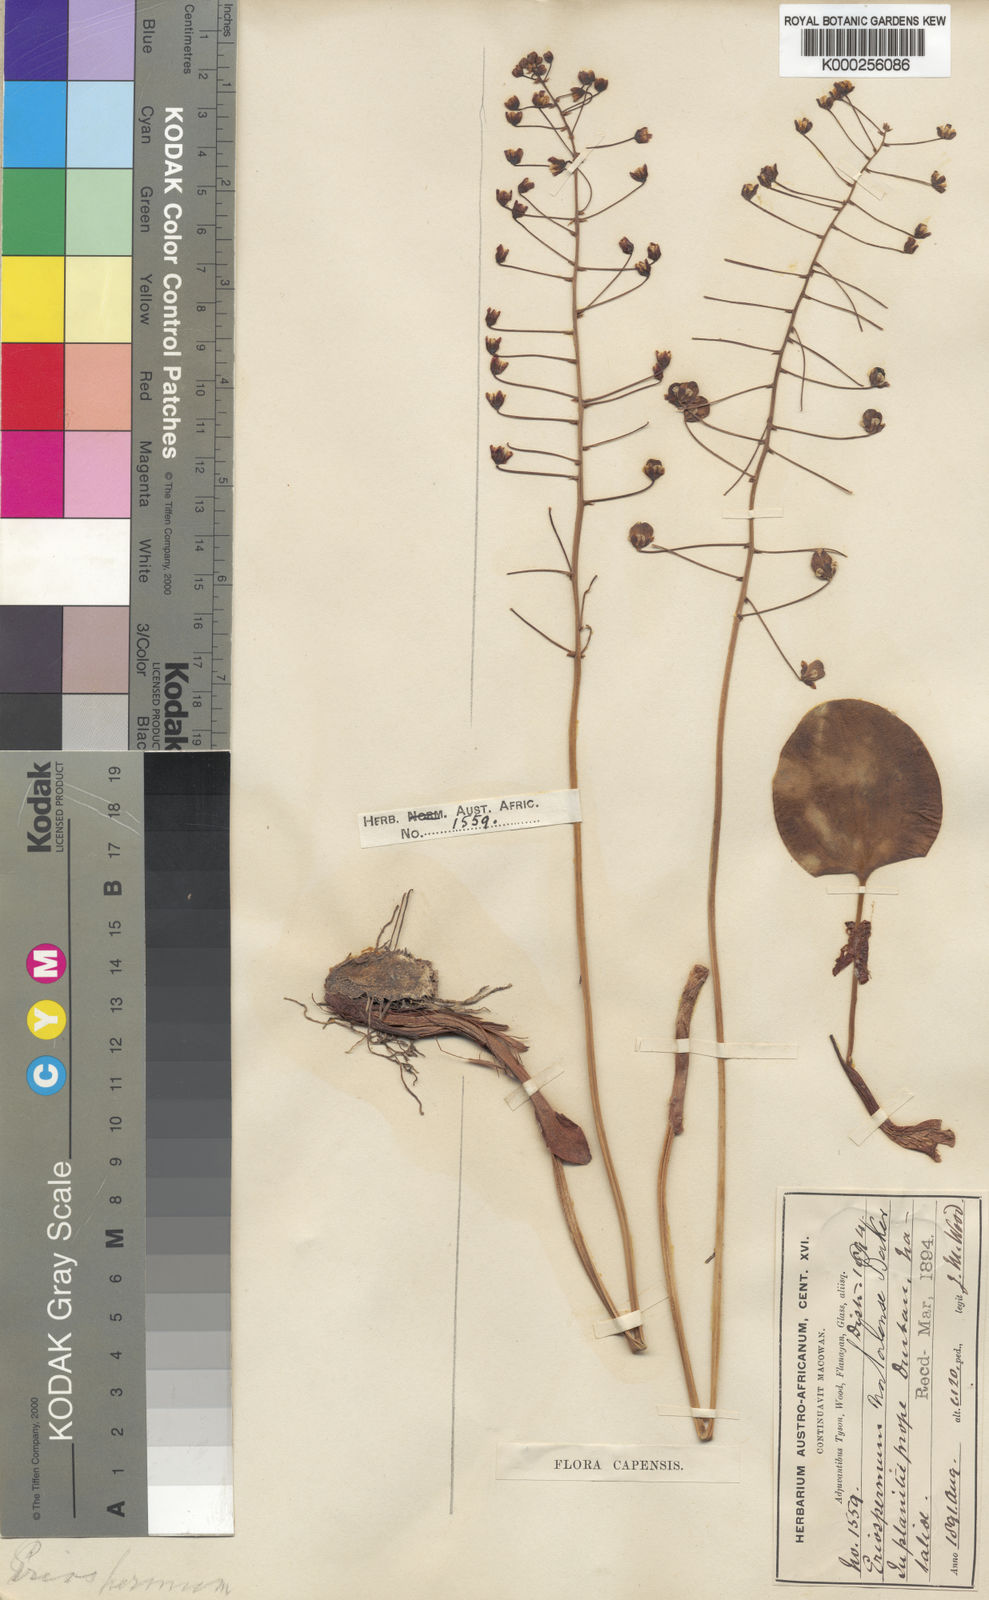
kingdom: Plantae
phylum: Tracheophyta
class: Liliopsida
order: Asparagales
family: Asparagaceae
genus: Eriospermum
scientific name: Eriospermum cooperi
